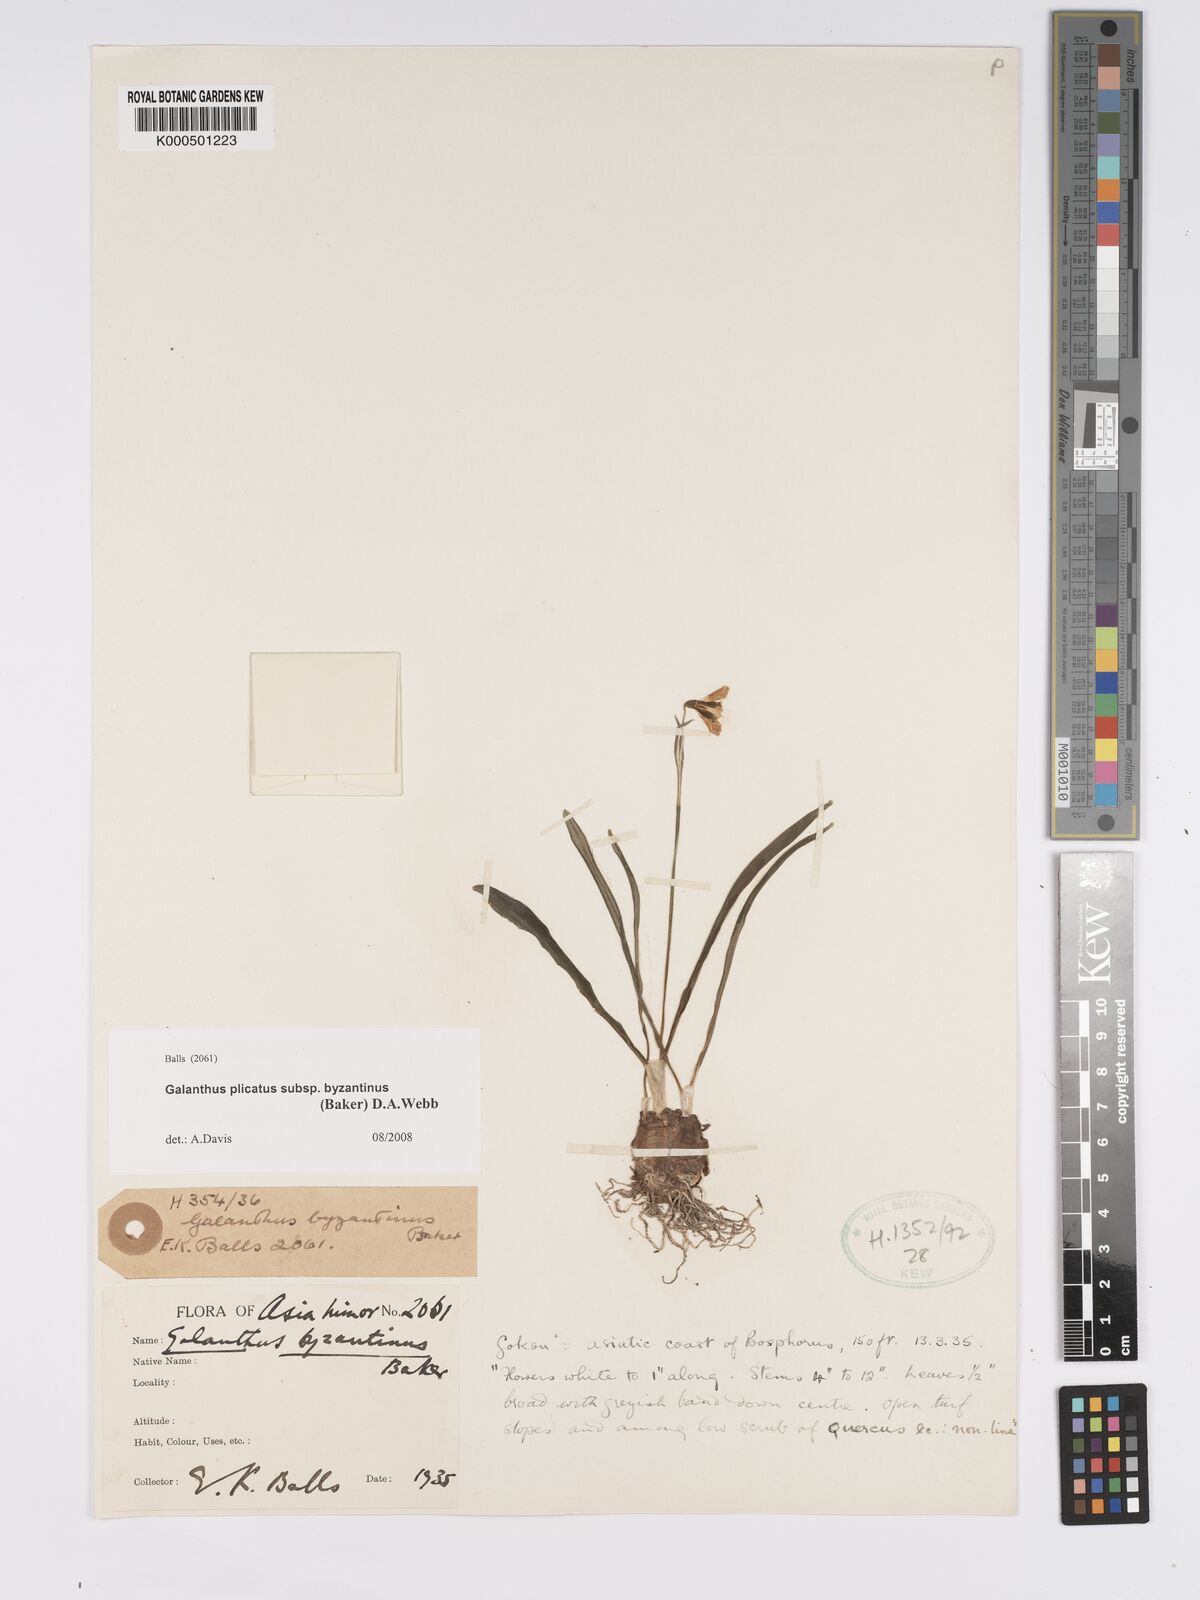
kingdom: Plantae
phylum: Tracheophyta
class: Liliopsida
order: Asparagales
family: Amaryllidaceae
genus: Galanthus
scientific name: Galanthus plicatus
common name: Pleated snowdrop
